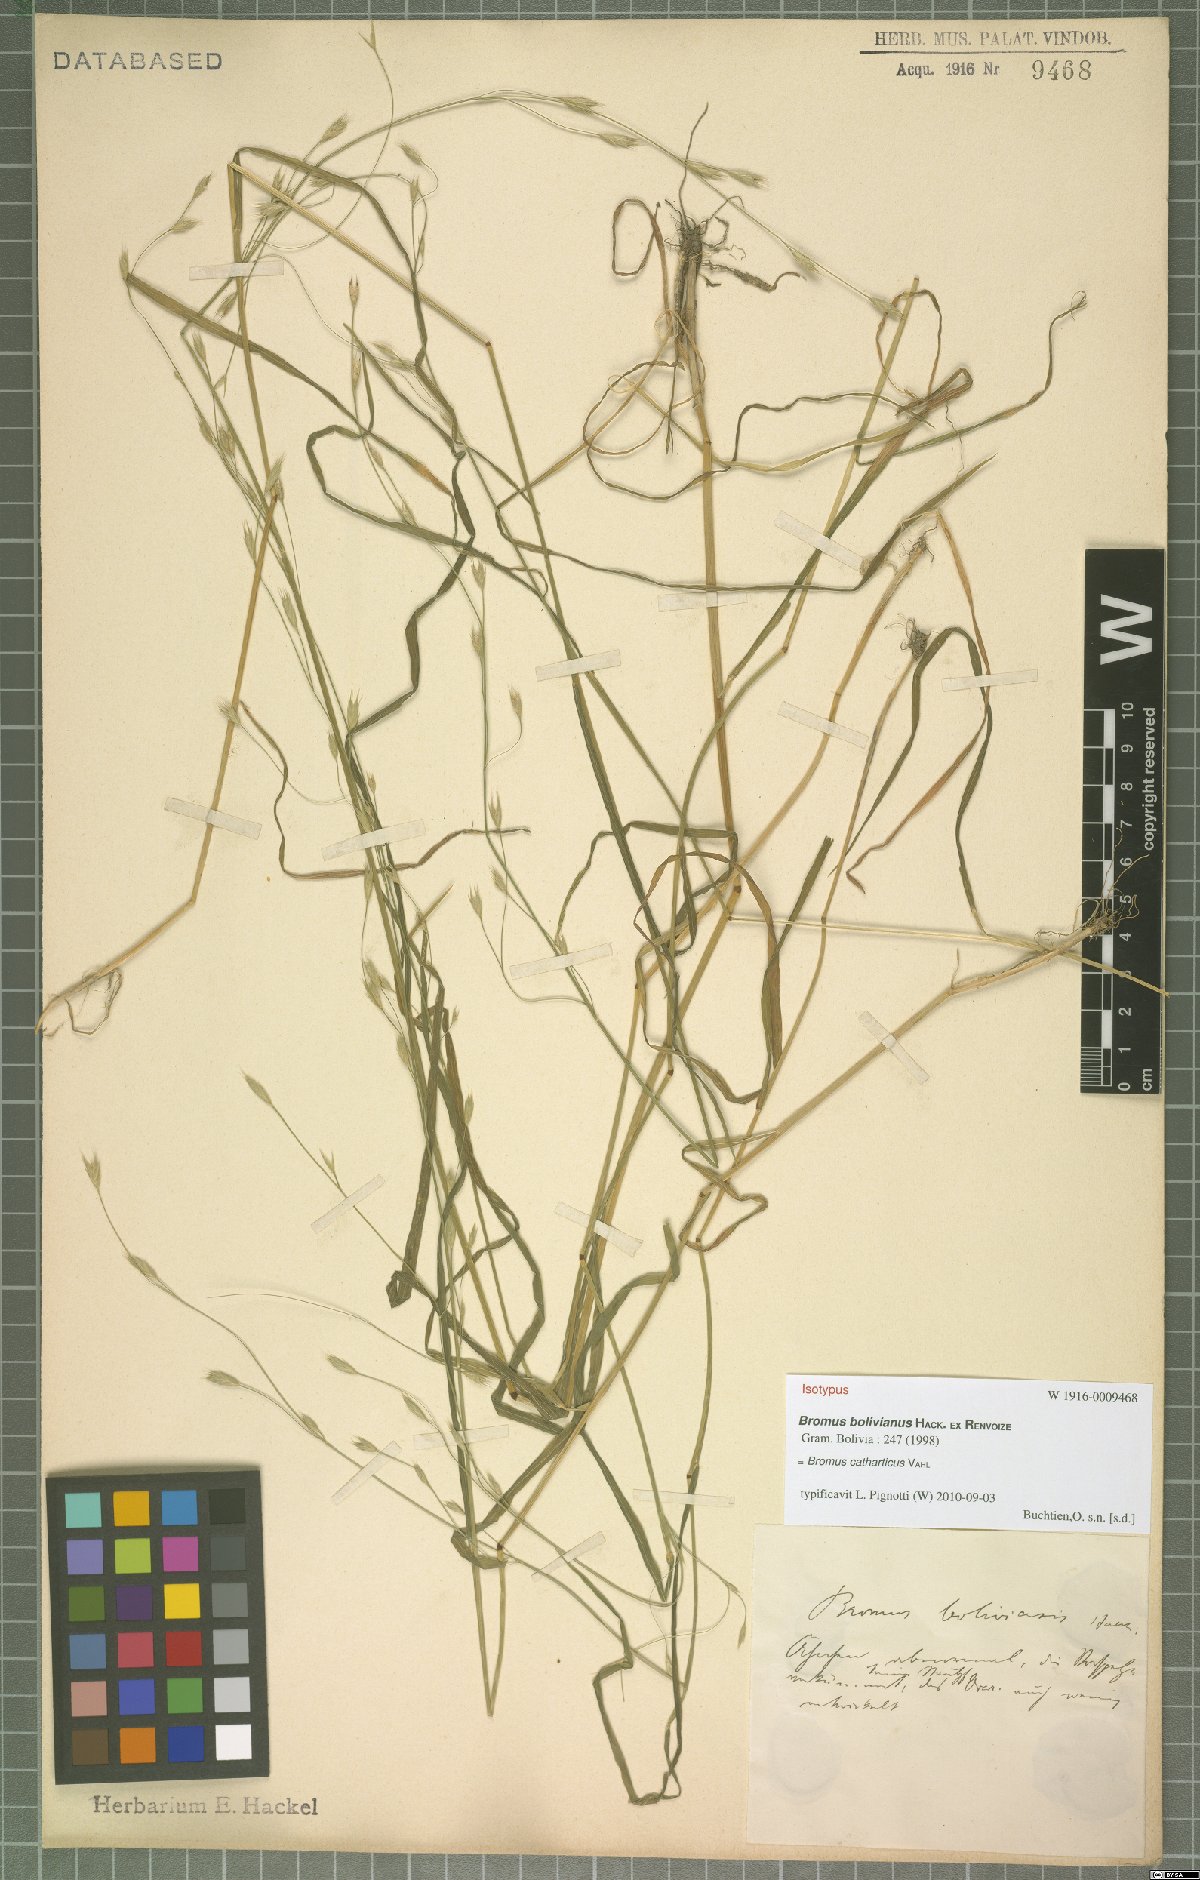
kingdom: Plantae
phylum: Tracheophyta
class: Liliopsida
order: Poales
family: Poaceae
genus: Bromus
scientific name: Bromus catharticus
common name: Rescuegrass
